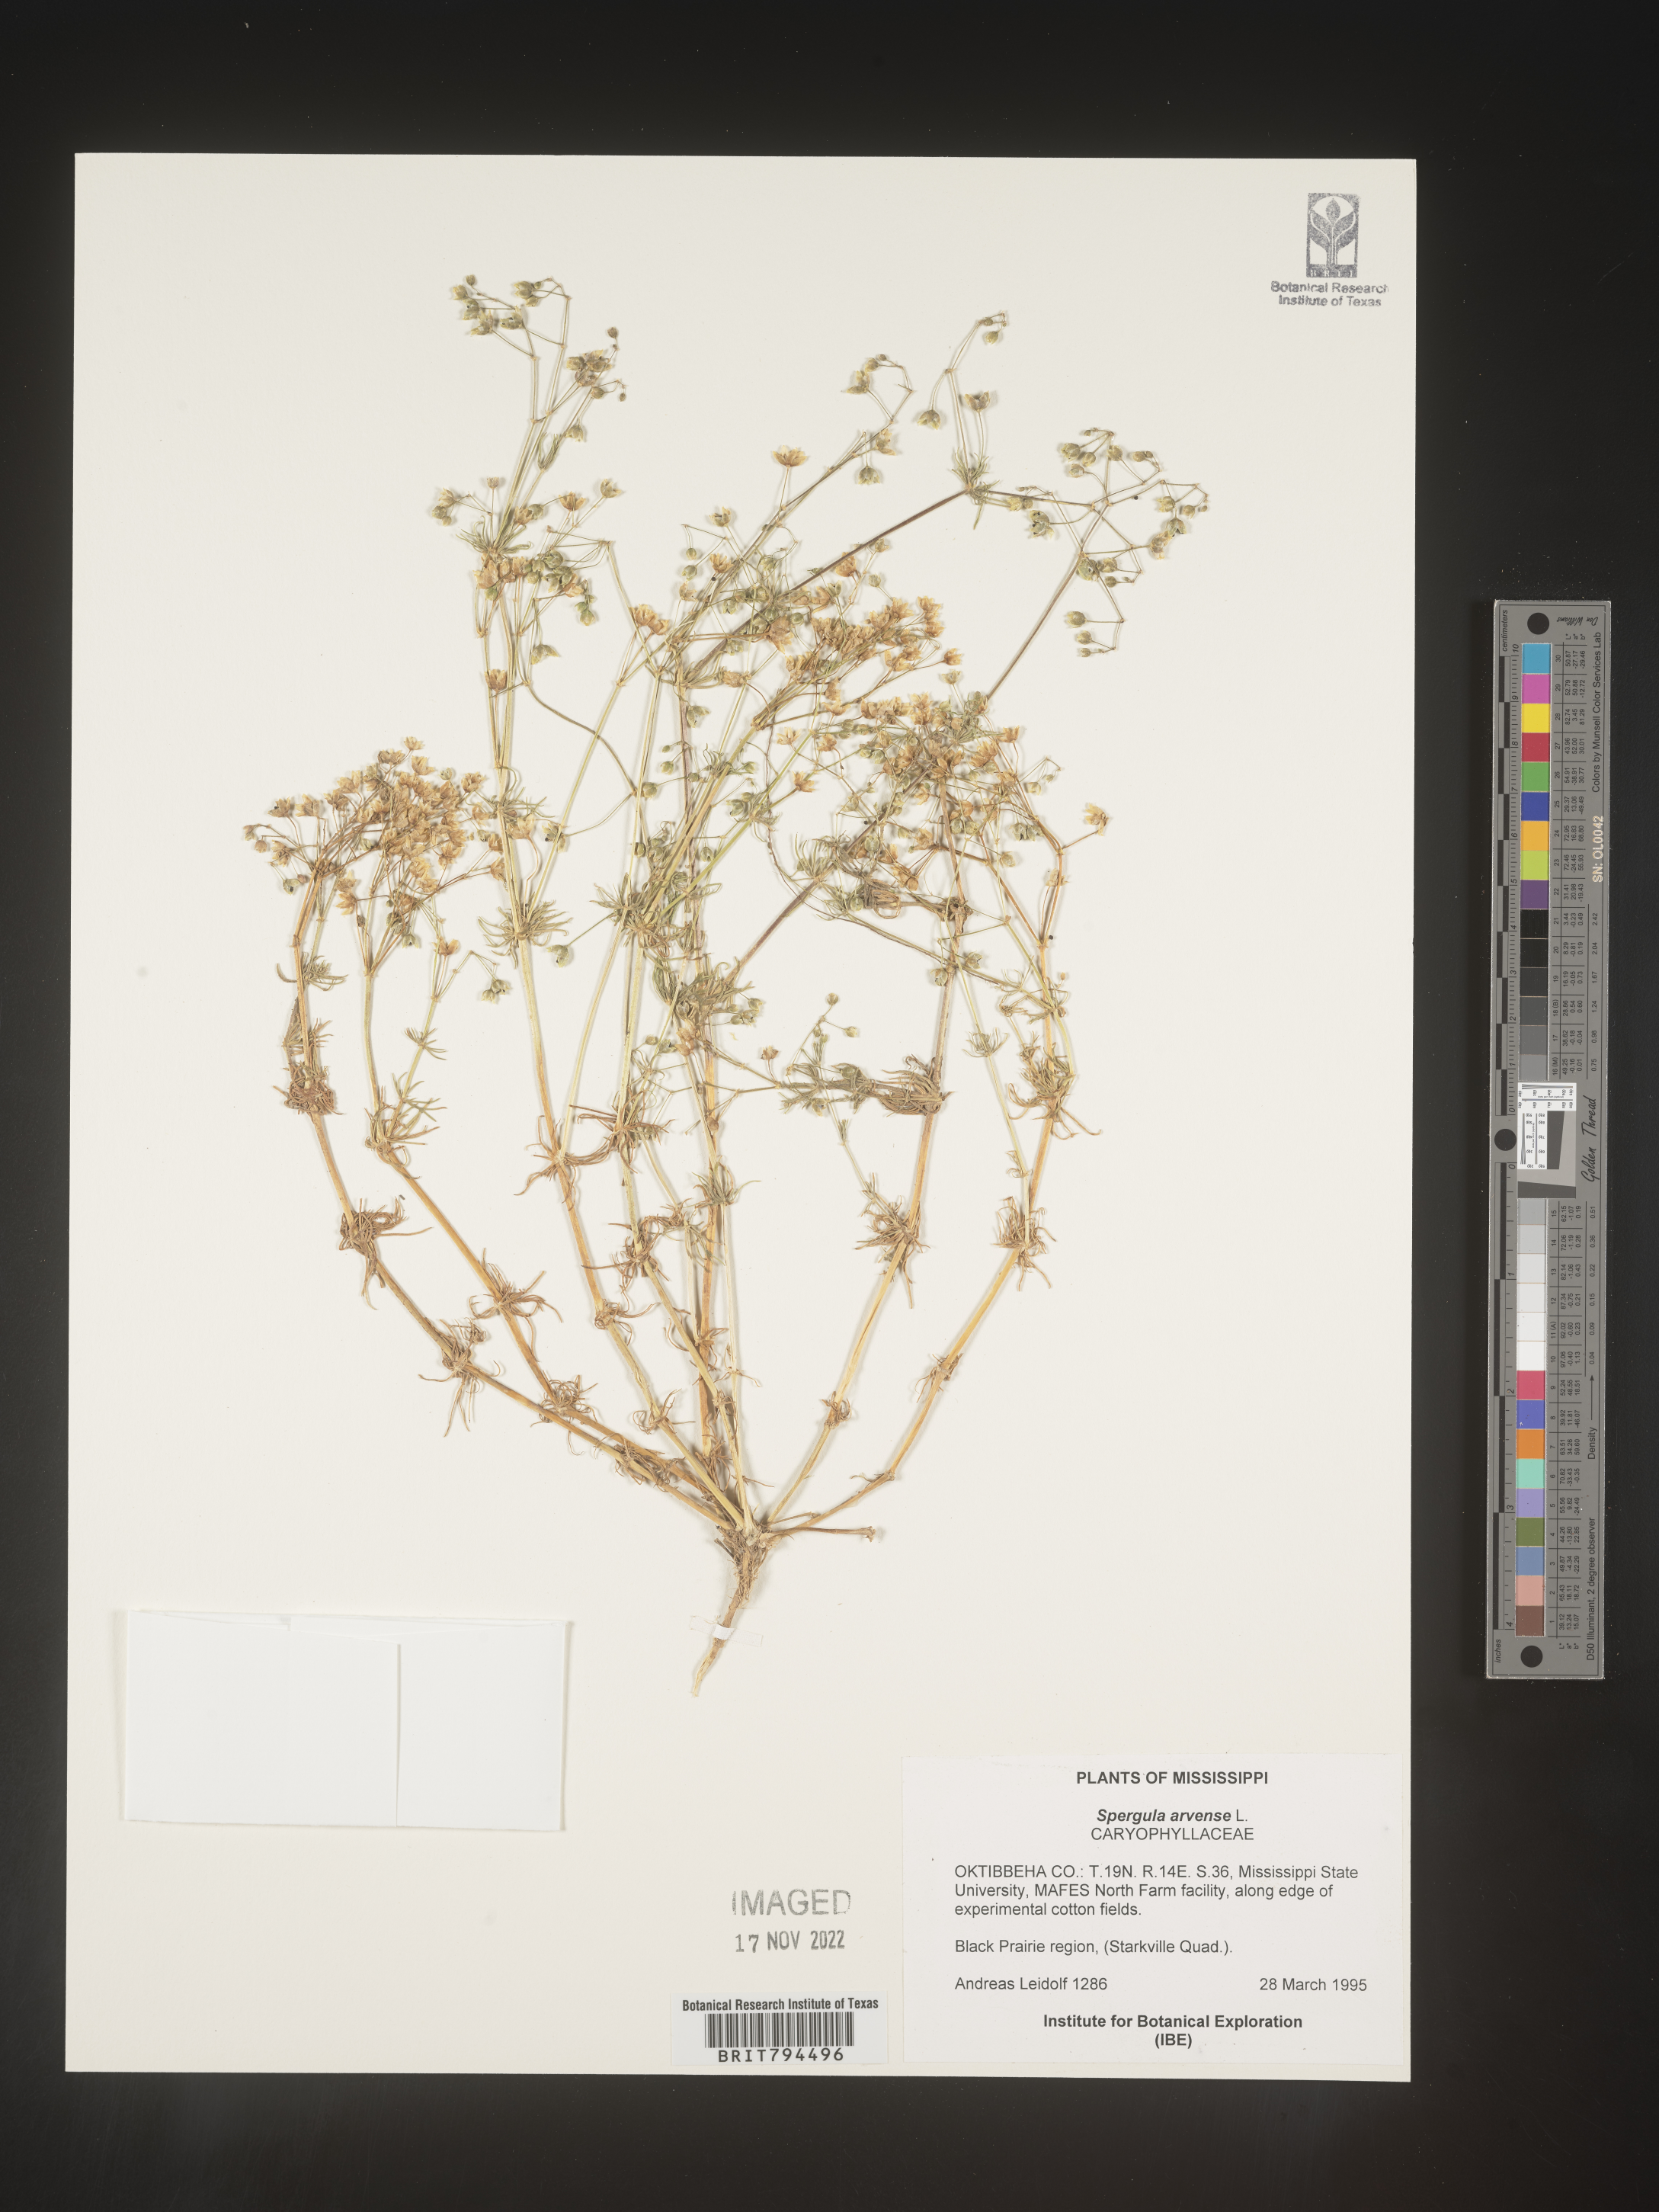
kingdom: Plantae
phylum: Tracheophyta
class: Magnoliopsida
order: Caryophyllales
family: Caryophyllaceae
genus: Spergula
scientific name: Spergula arvensis
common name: Corn spurrey
